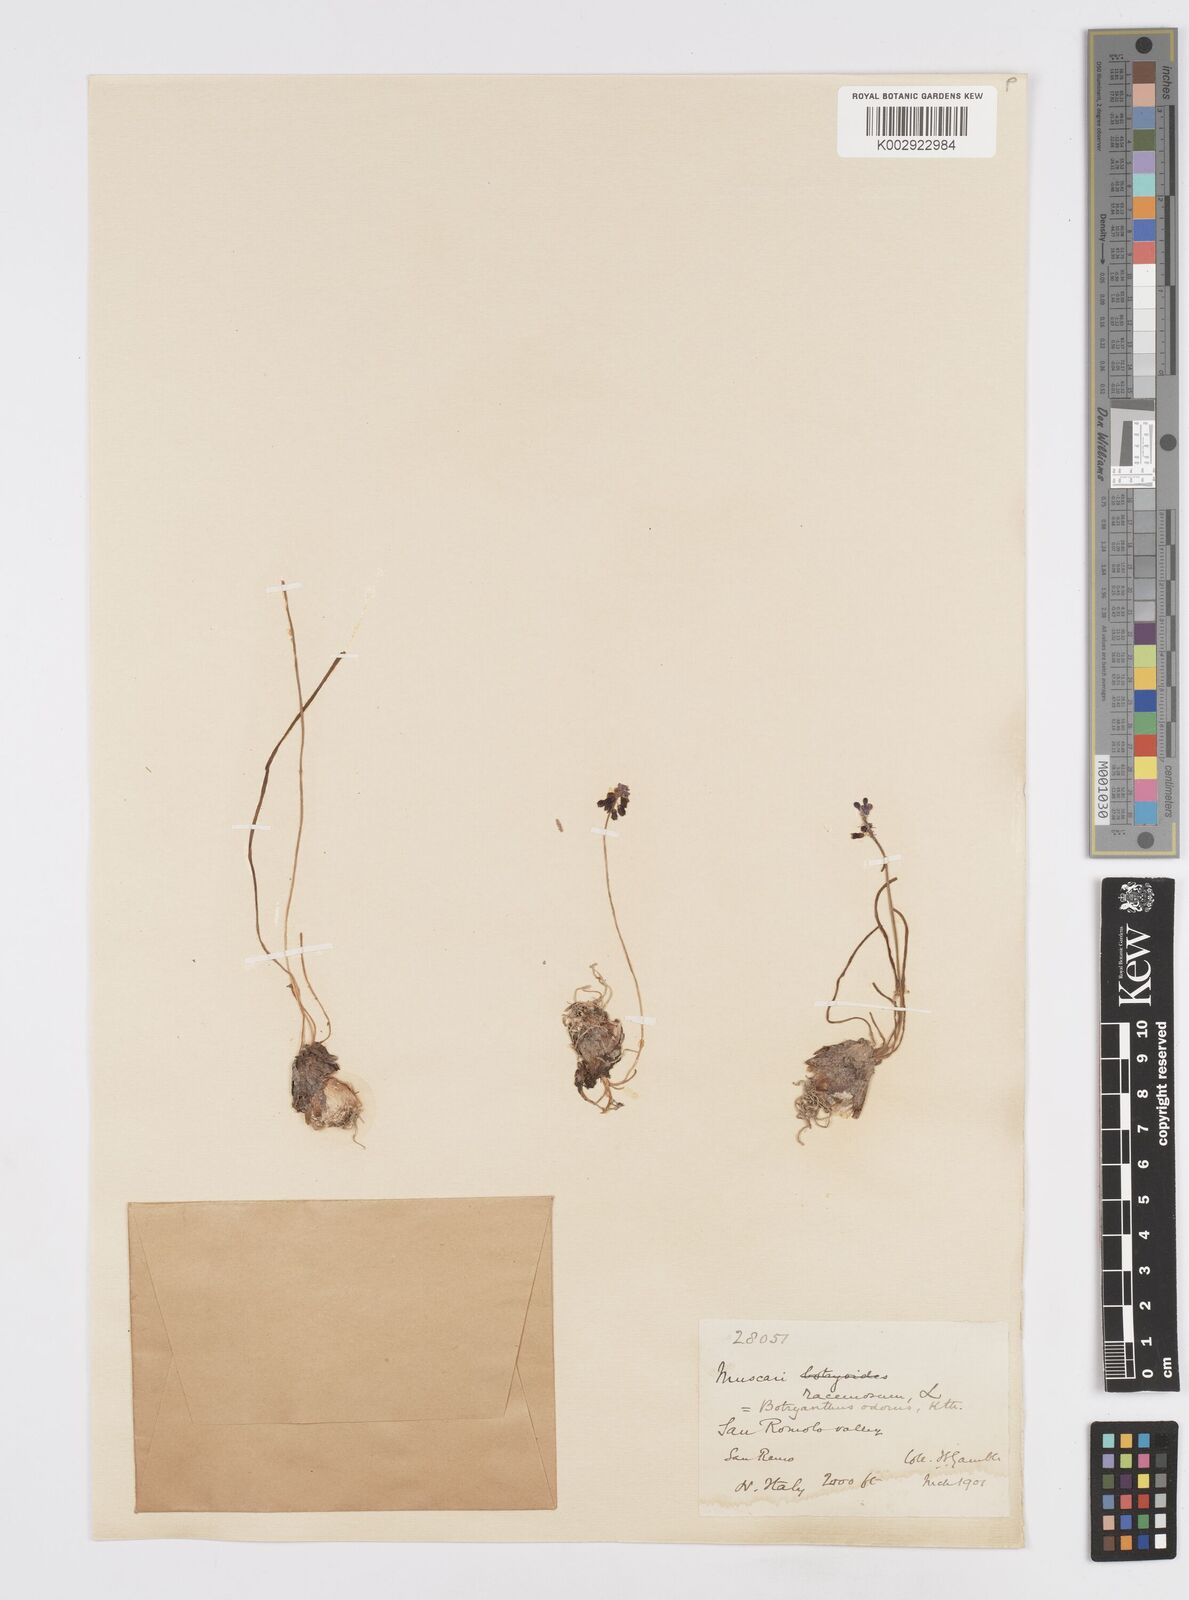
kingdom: Plantae
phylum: Tracheophyta
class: Liliopsida
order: Asparagales
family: Asparagaceae
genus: Muscarimia
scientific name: Muscarimia muscari
